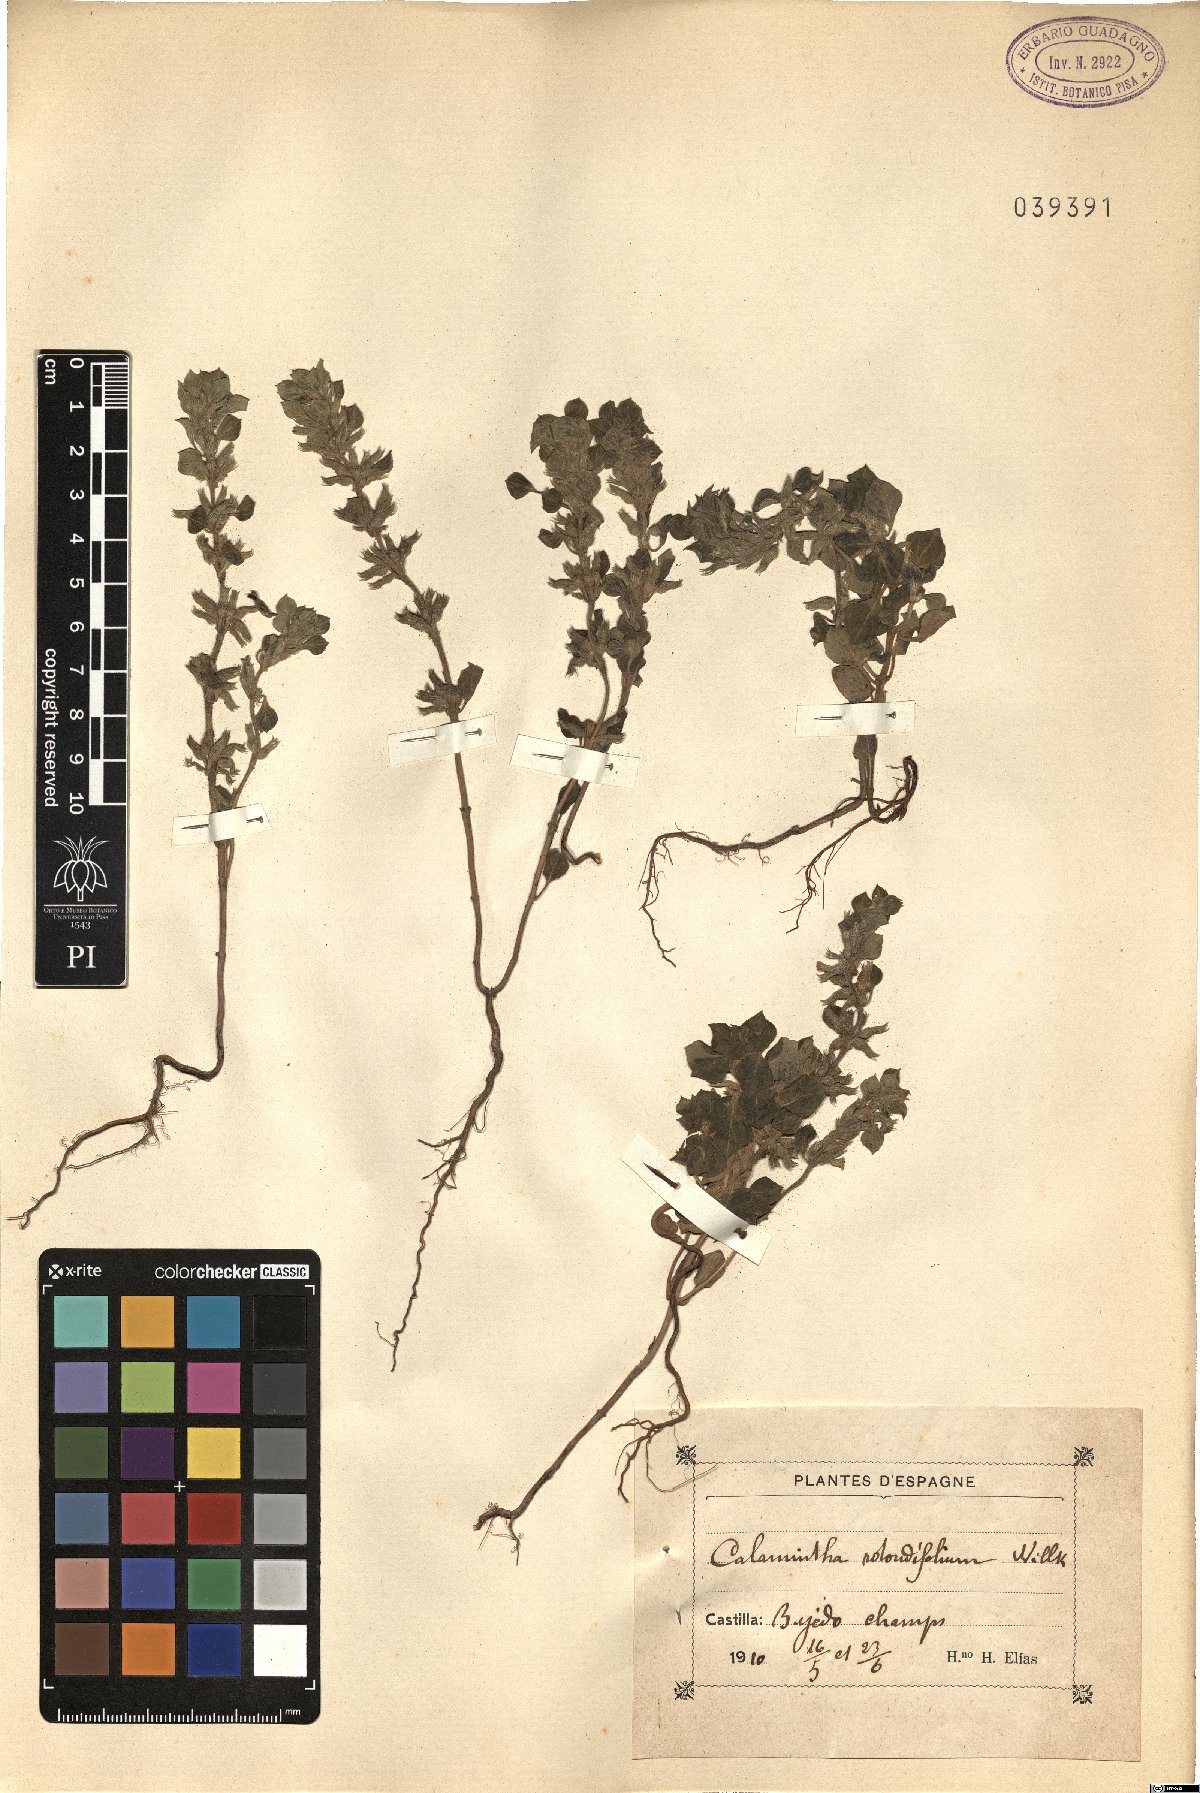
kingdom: Plantae
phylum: Tracheophyta
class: Magnoliopsida
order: Lamiales
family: Lamiaceae
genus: Clinopodium
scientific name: Clinopodium graveolens
